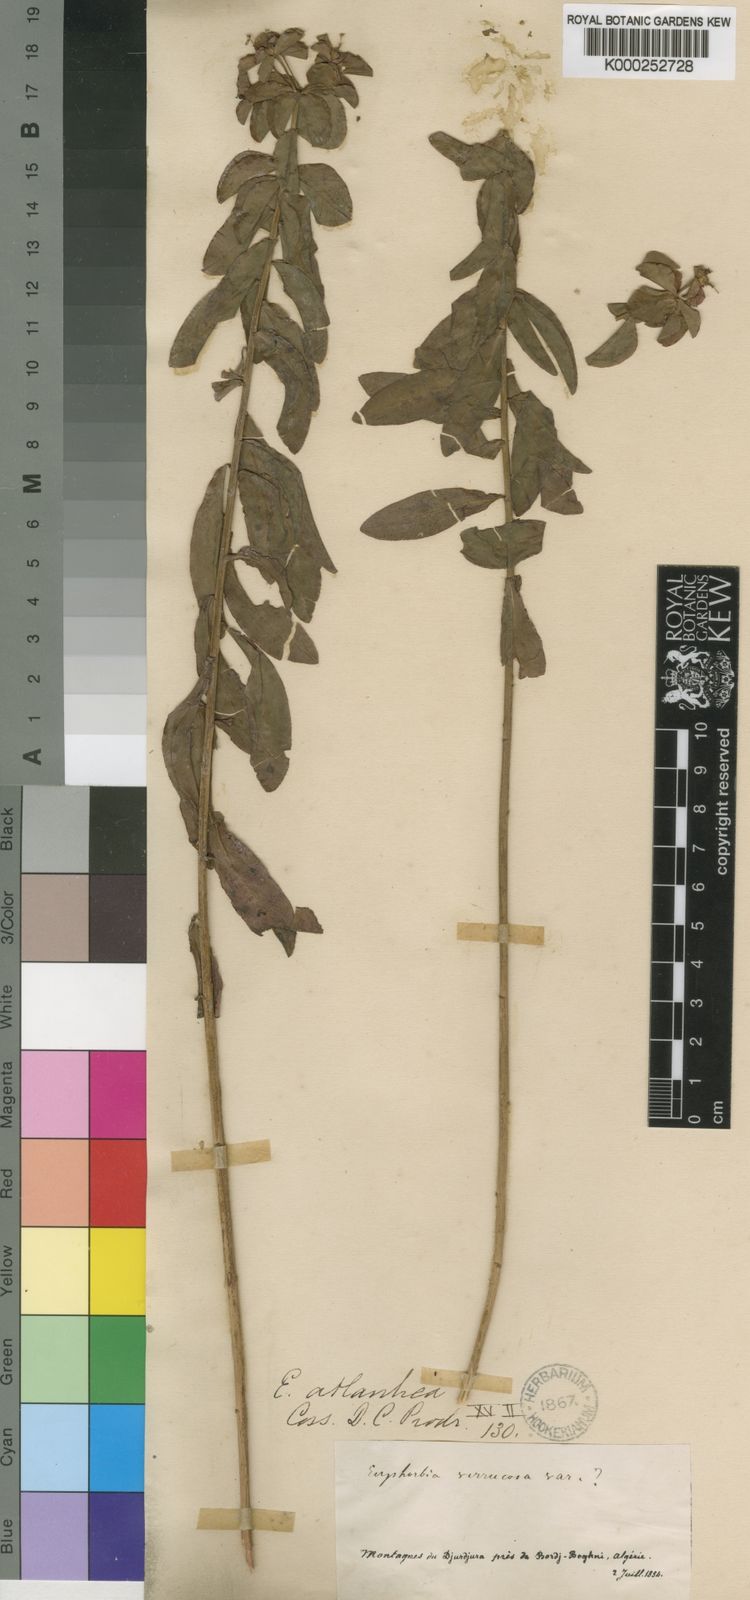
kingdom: Plantae
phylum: Tracheophyta
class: Magnoliopsida
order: Malpighiales
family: Euphorbiaceae
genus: Euphorbia
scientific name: Euphorbia clementei
